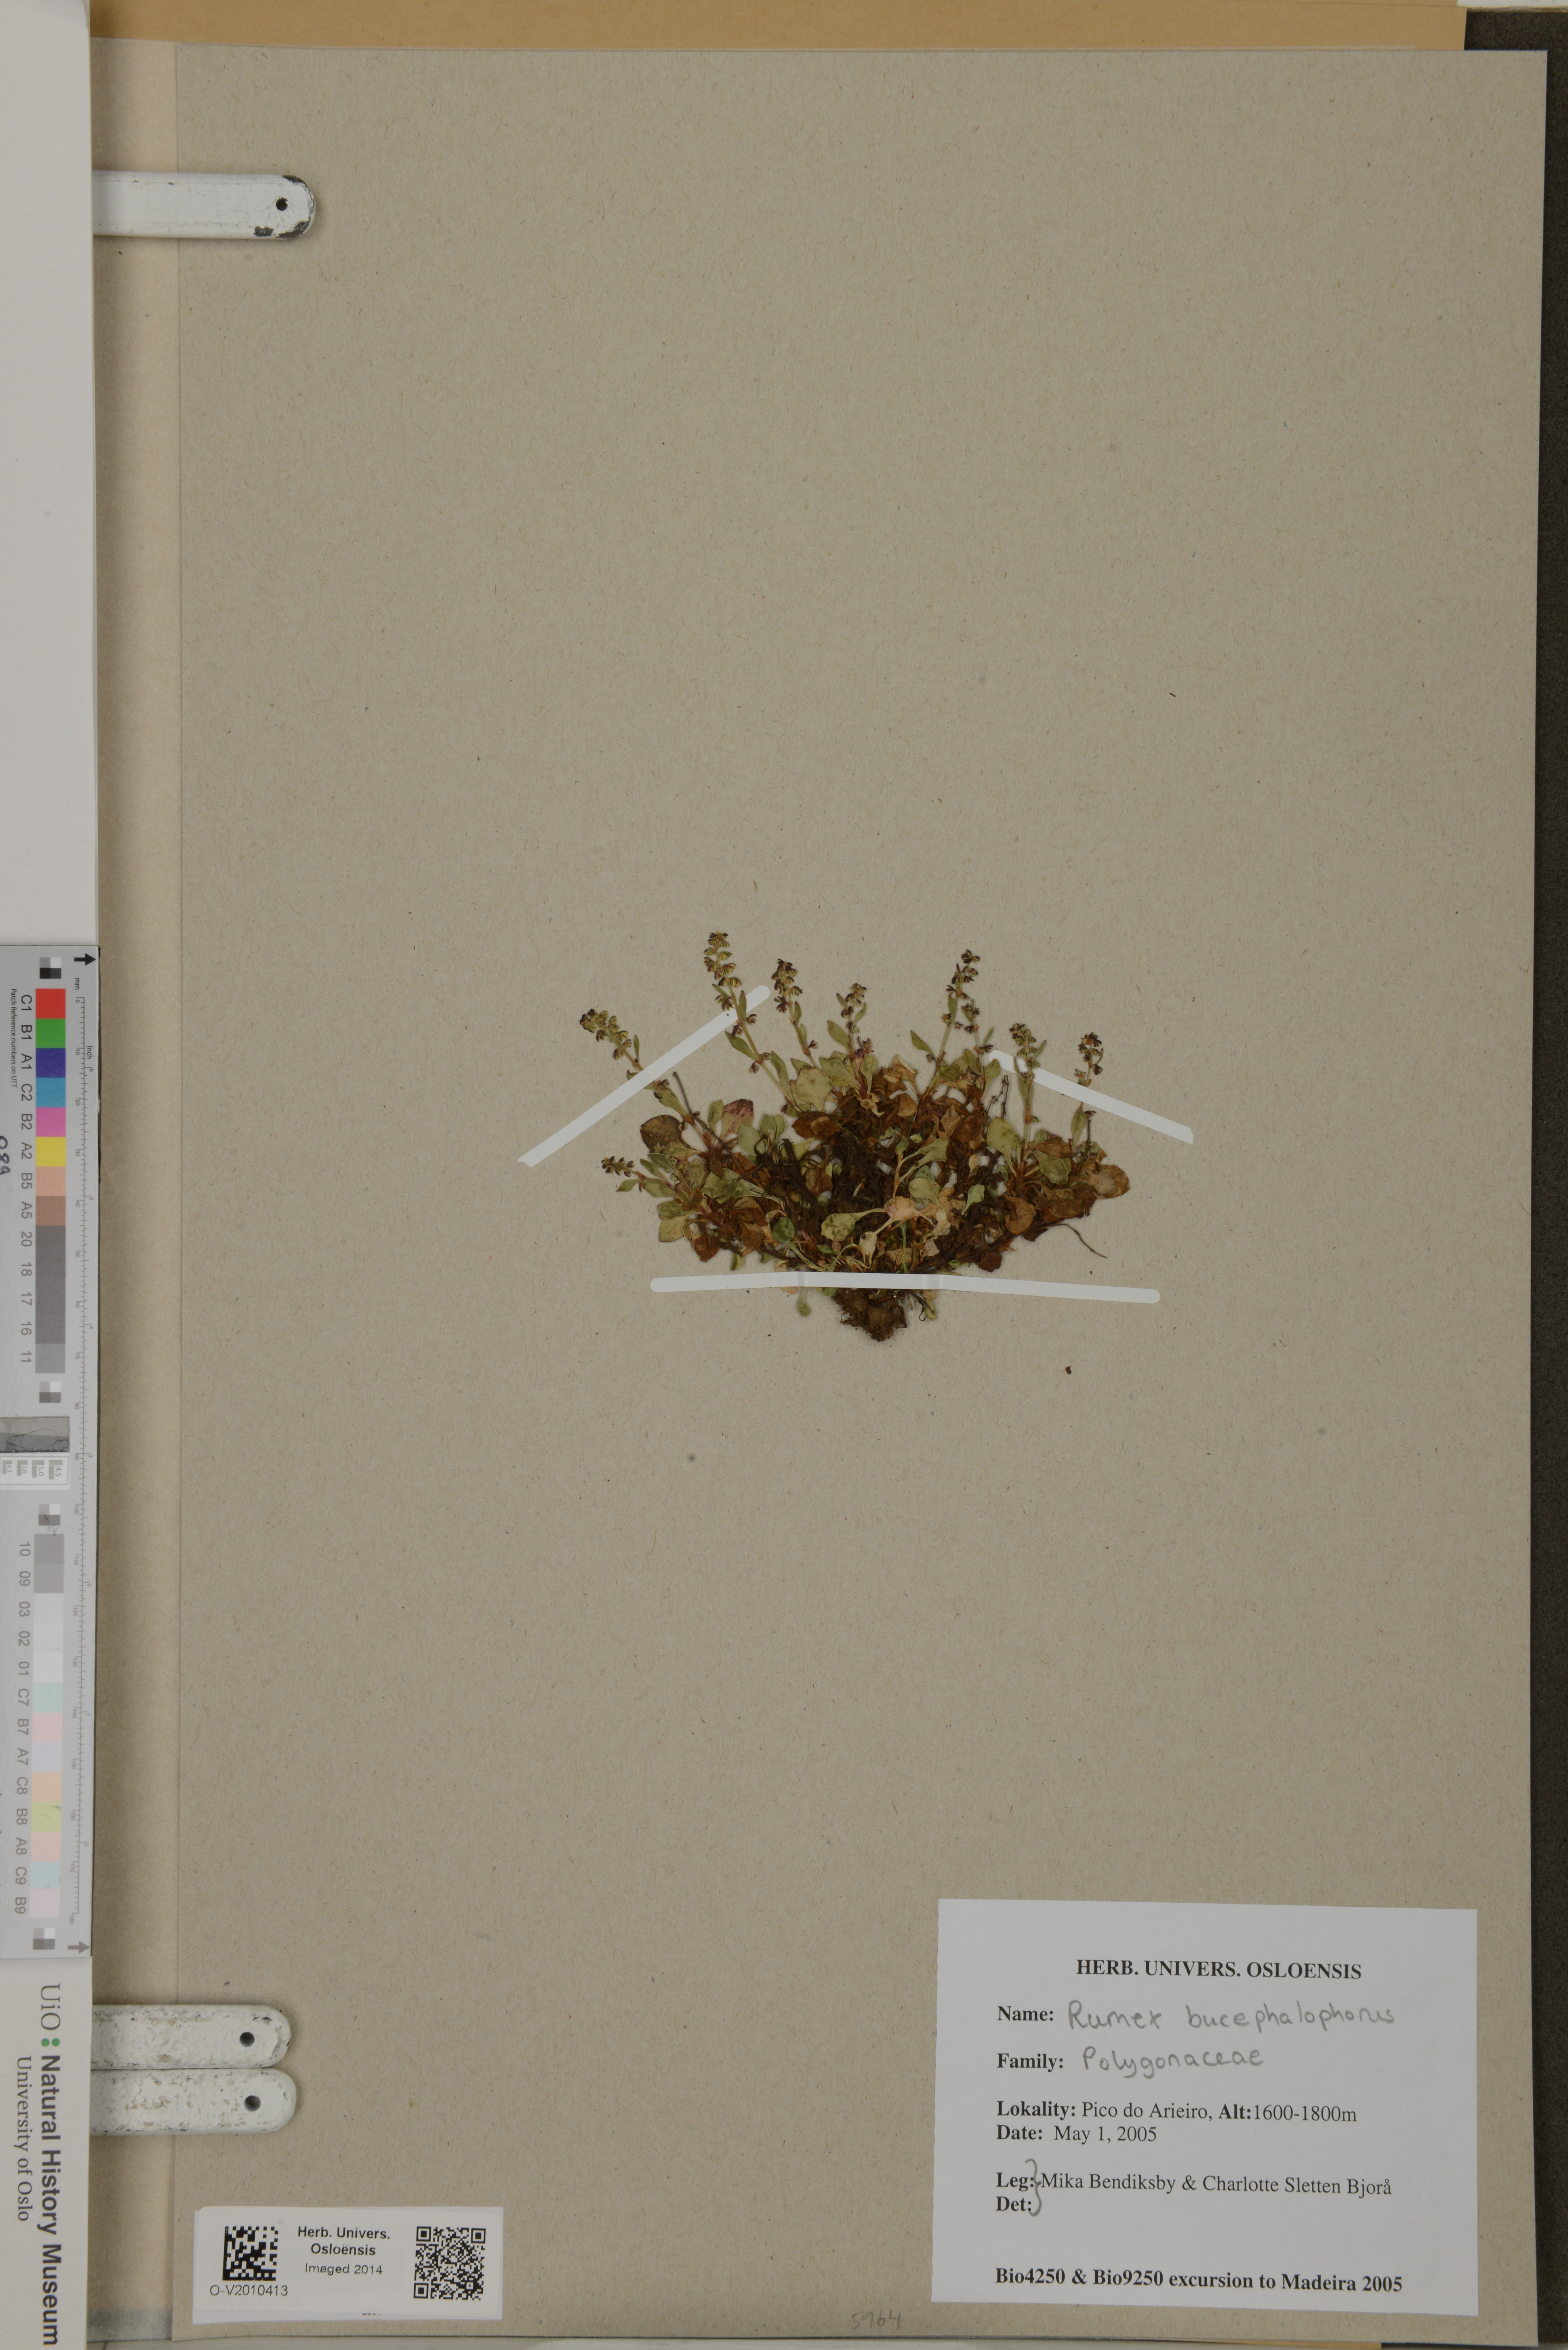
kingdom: Plantae
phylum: Tracheophyta
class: Magnoliopsida
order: Caryophyllales
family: Polygonaceae
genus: Rumex
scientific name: Rumex bucephalophorus
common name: Red dock
